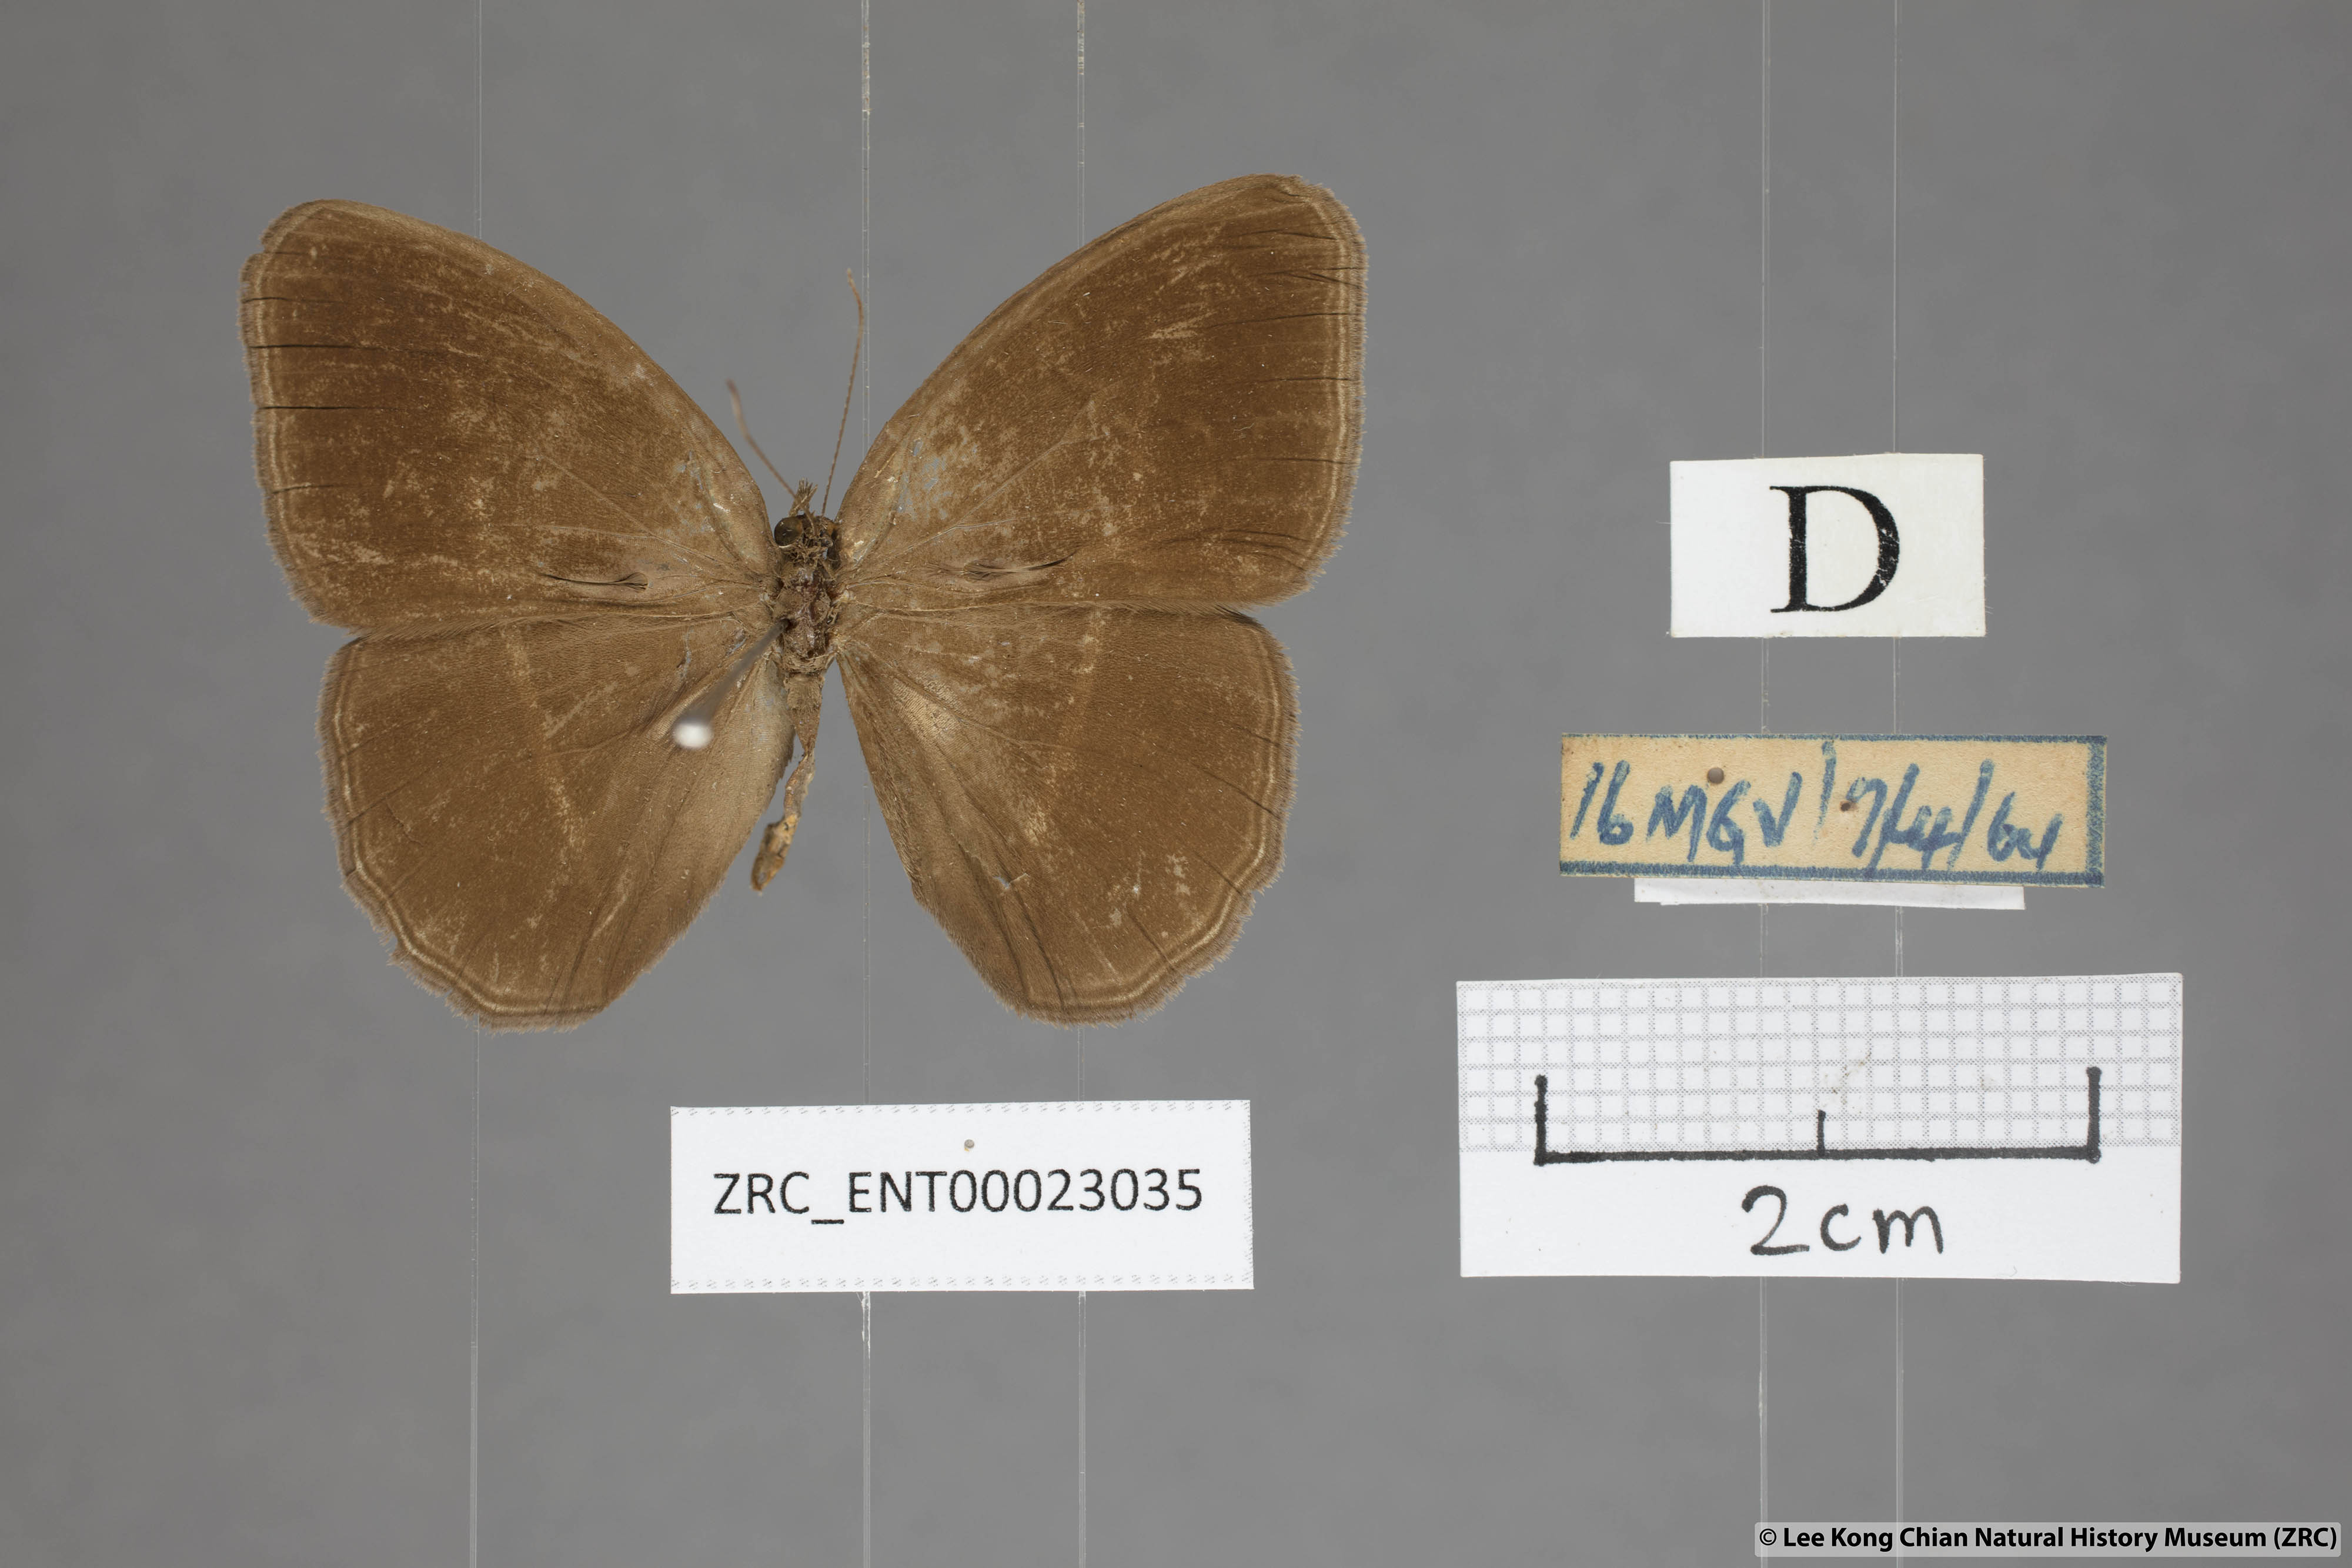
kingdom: Animalia
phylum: Arthropoda
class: Insecta
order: Lepidoptera
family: Nymphalidae
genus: Orsotriaena
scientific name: Orsotriaena medus
